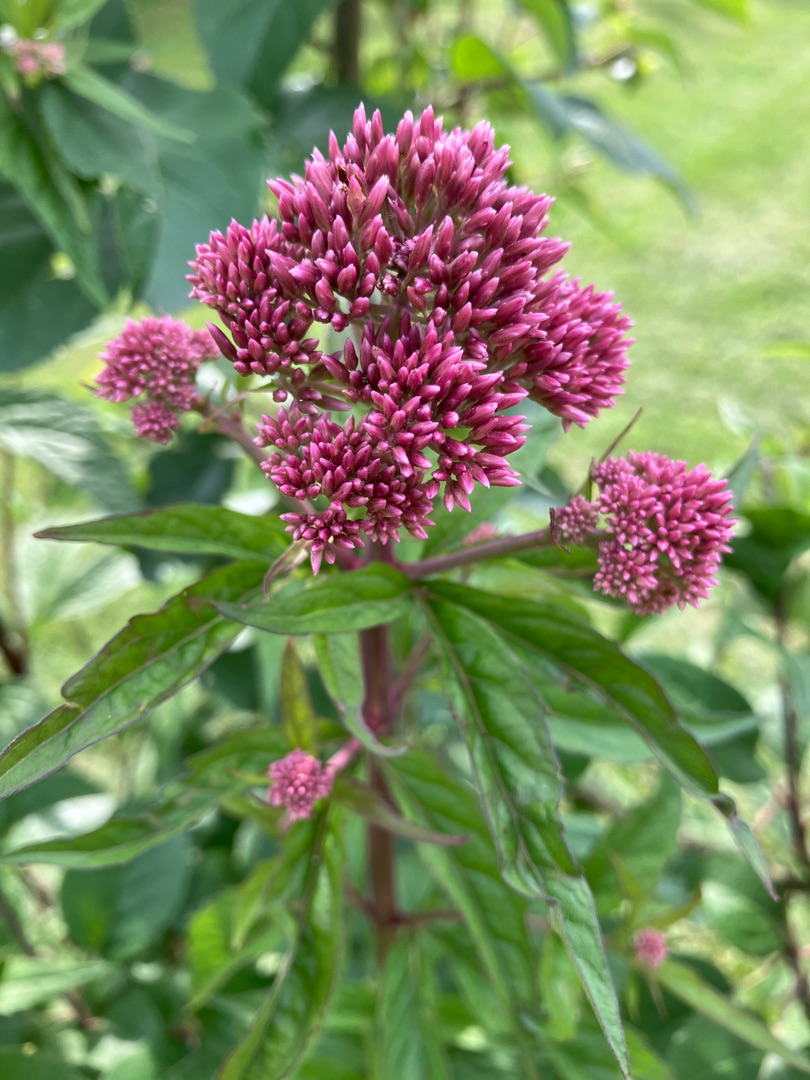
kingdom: Plantae
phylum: Tracheophyta
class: Magnoliopsida
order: Asterales
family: Asteraceae
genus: Eupatorium
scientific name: Eupatorium cannabinum
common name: Hjortetrøst
